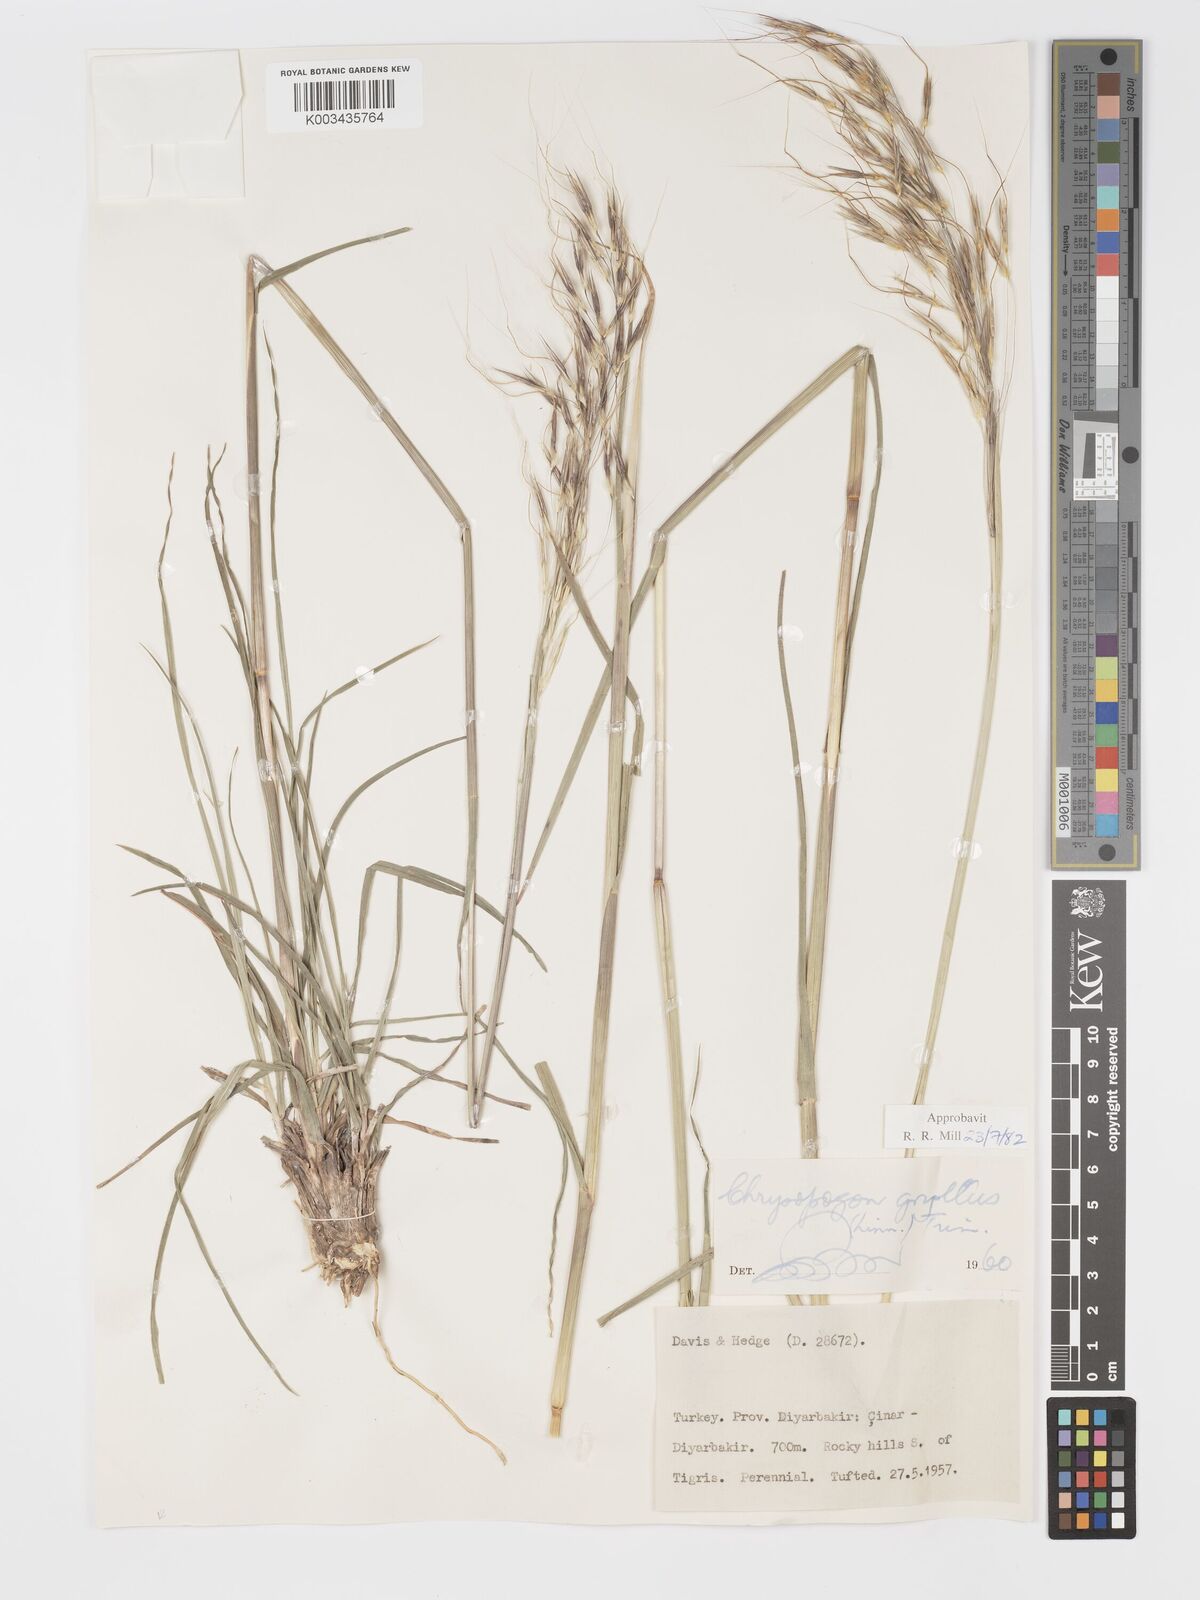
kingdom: Plantae
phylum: Tracheophyta
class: Liliopsida
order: Poales
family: Poaceae
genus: Chrysopogon
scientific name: Chrysopogon gryllus
